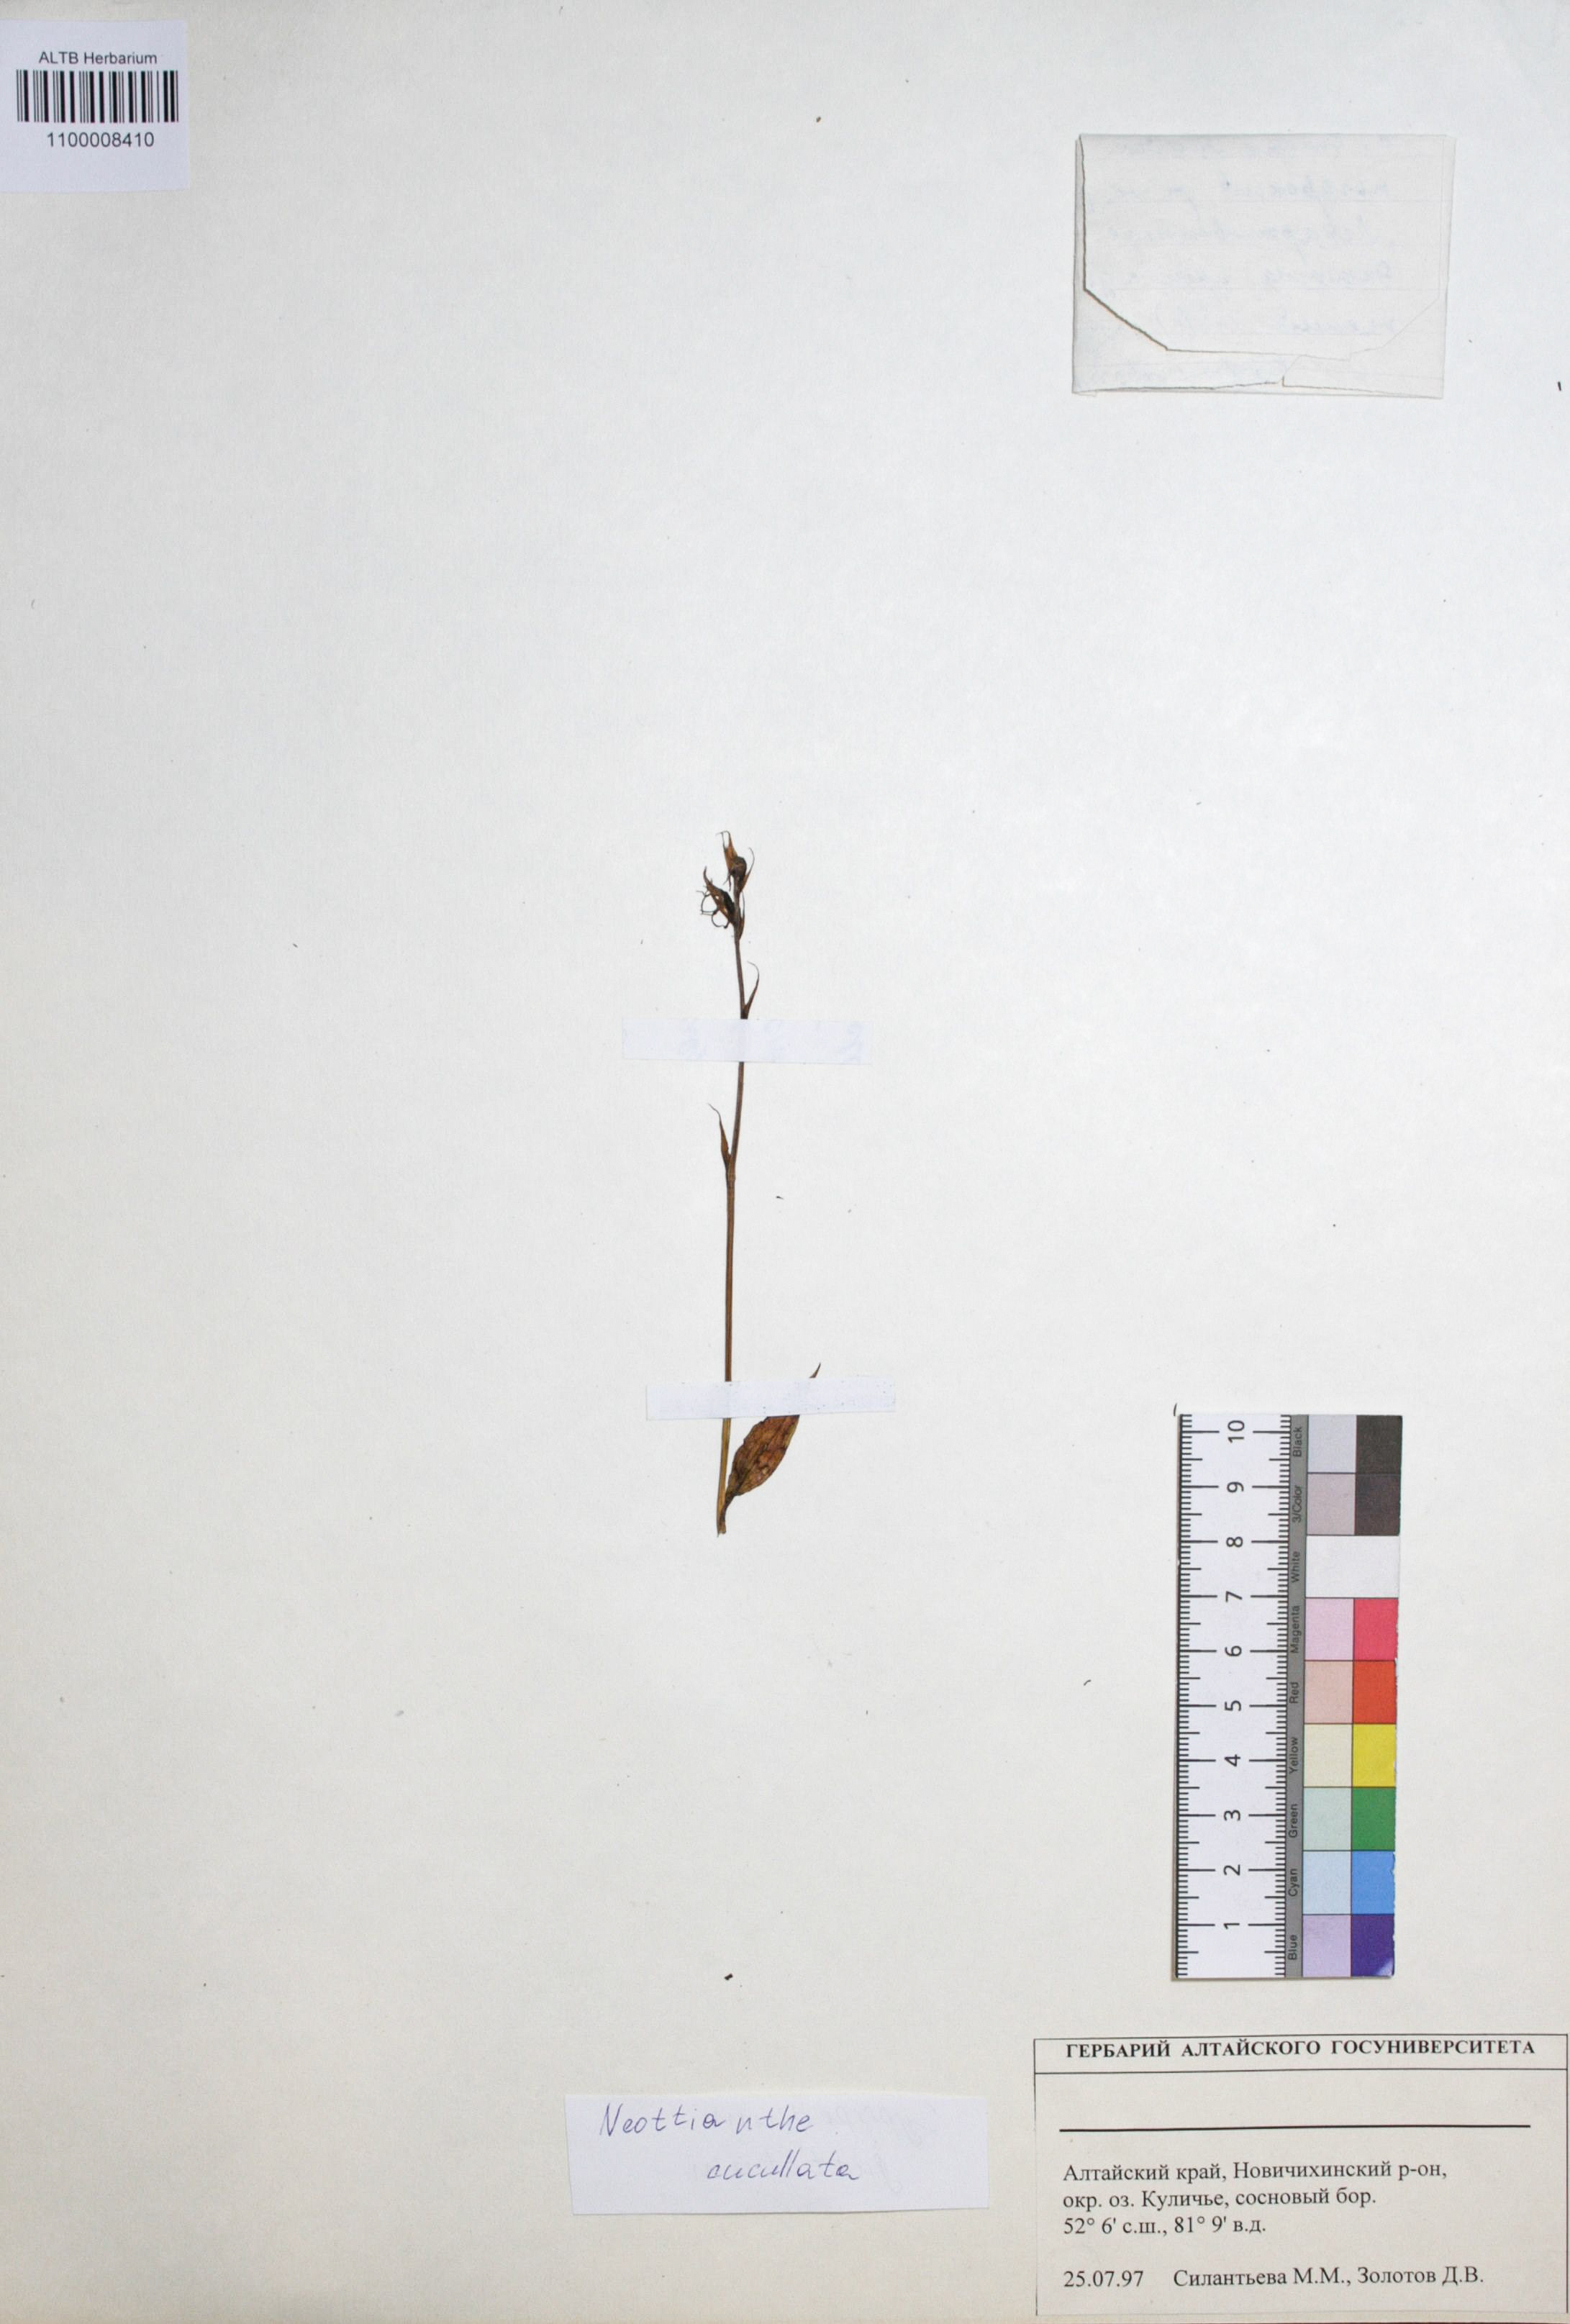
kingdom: Plantae
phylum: Tracheophyta
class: Liliopsida
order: Asparagales
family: Orchidaceae
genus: Hemipilia
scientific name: Hemipilia cucullata
